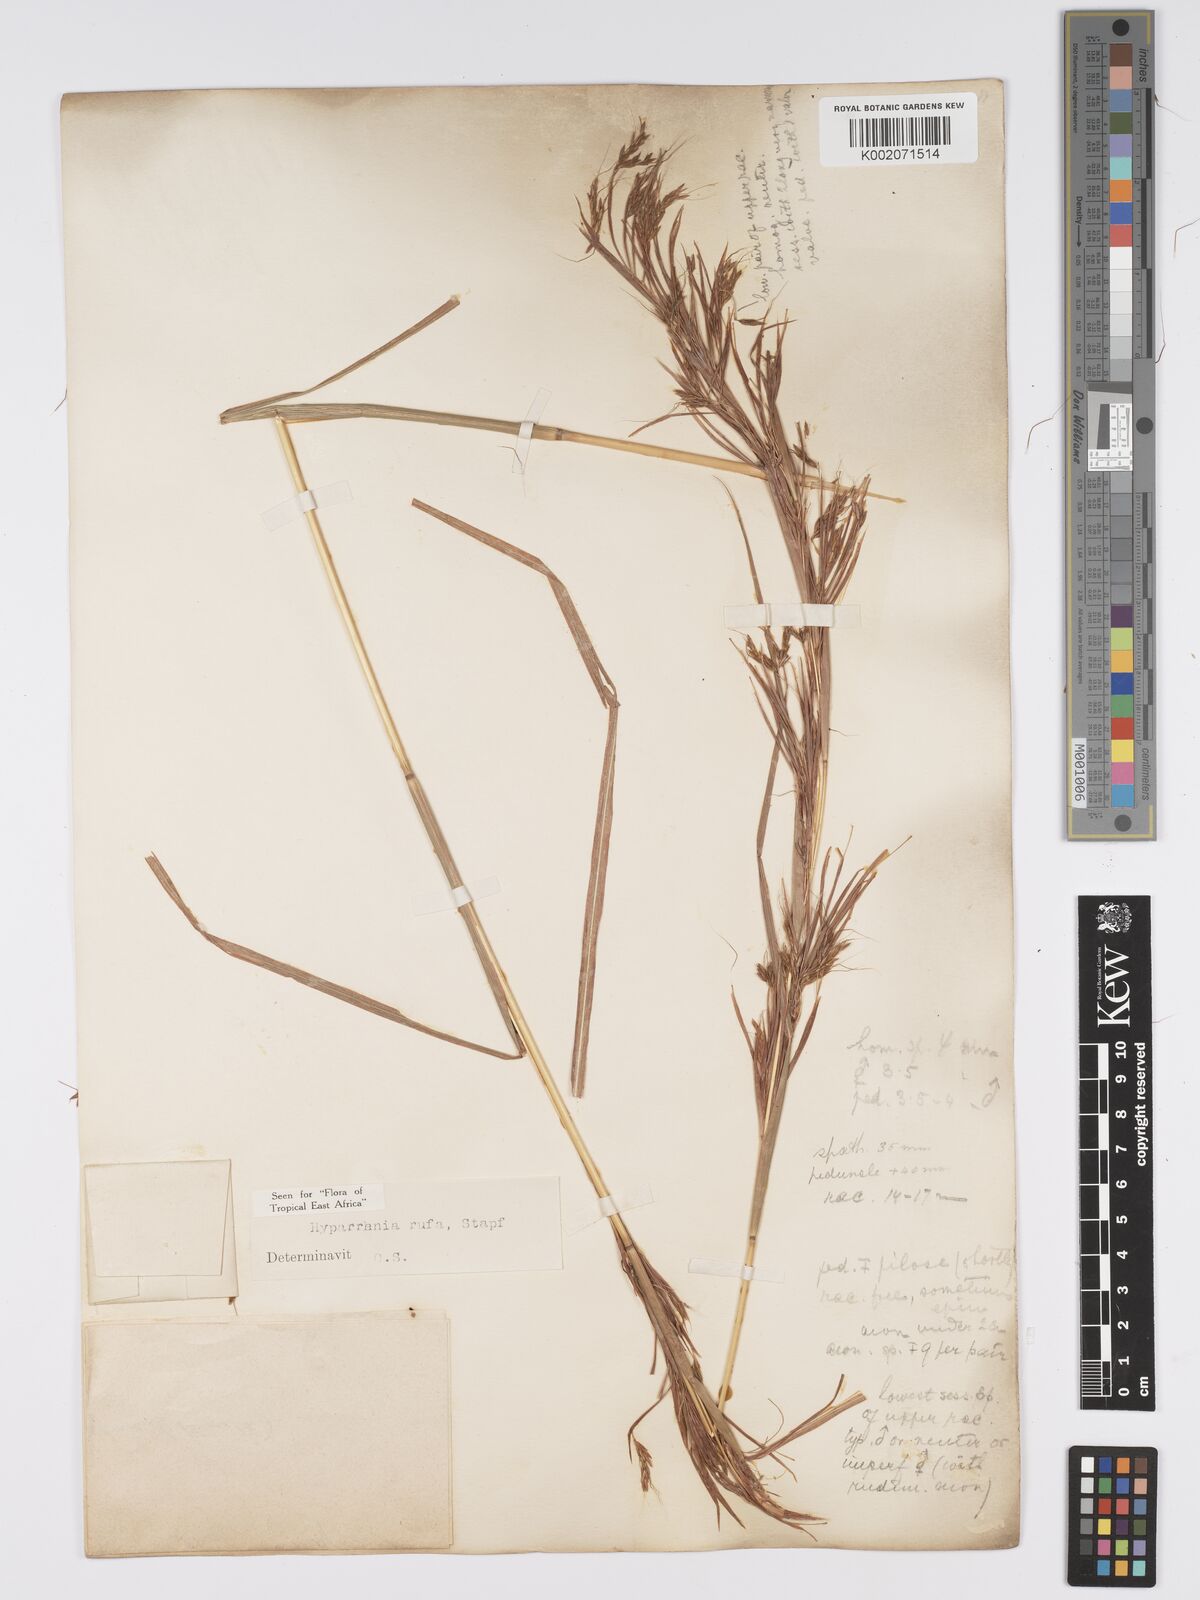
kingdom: Plantae
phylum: Tracheophyta
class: Liliopsida
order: Poales
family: Poaceae
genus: Hyparrhenia
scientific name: Hyparrhenia rufa
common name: Jaraguagrass
